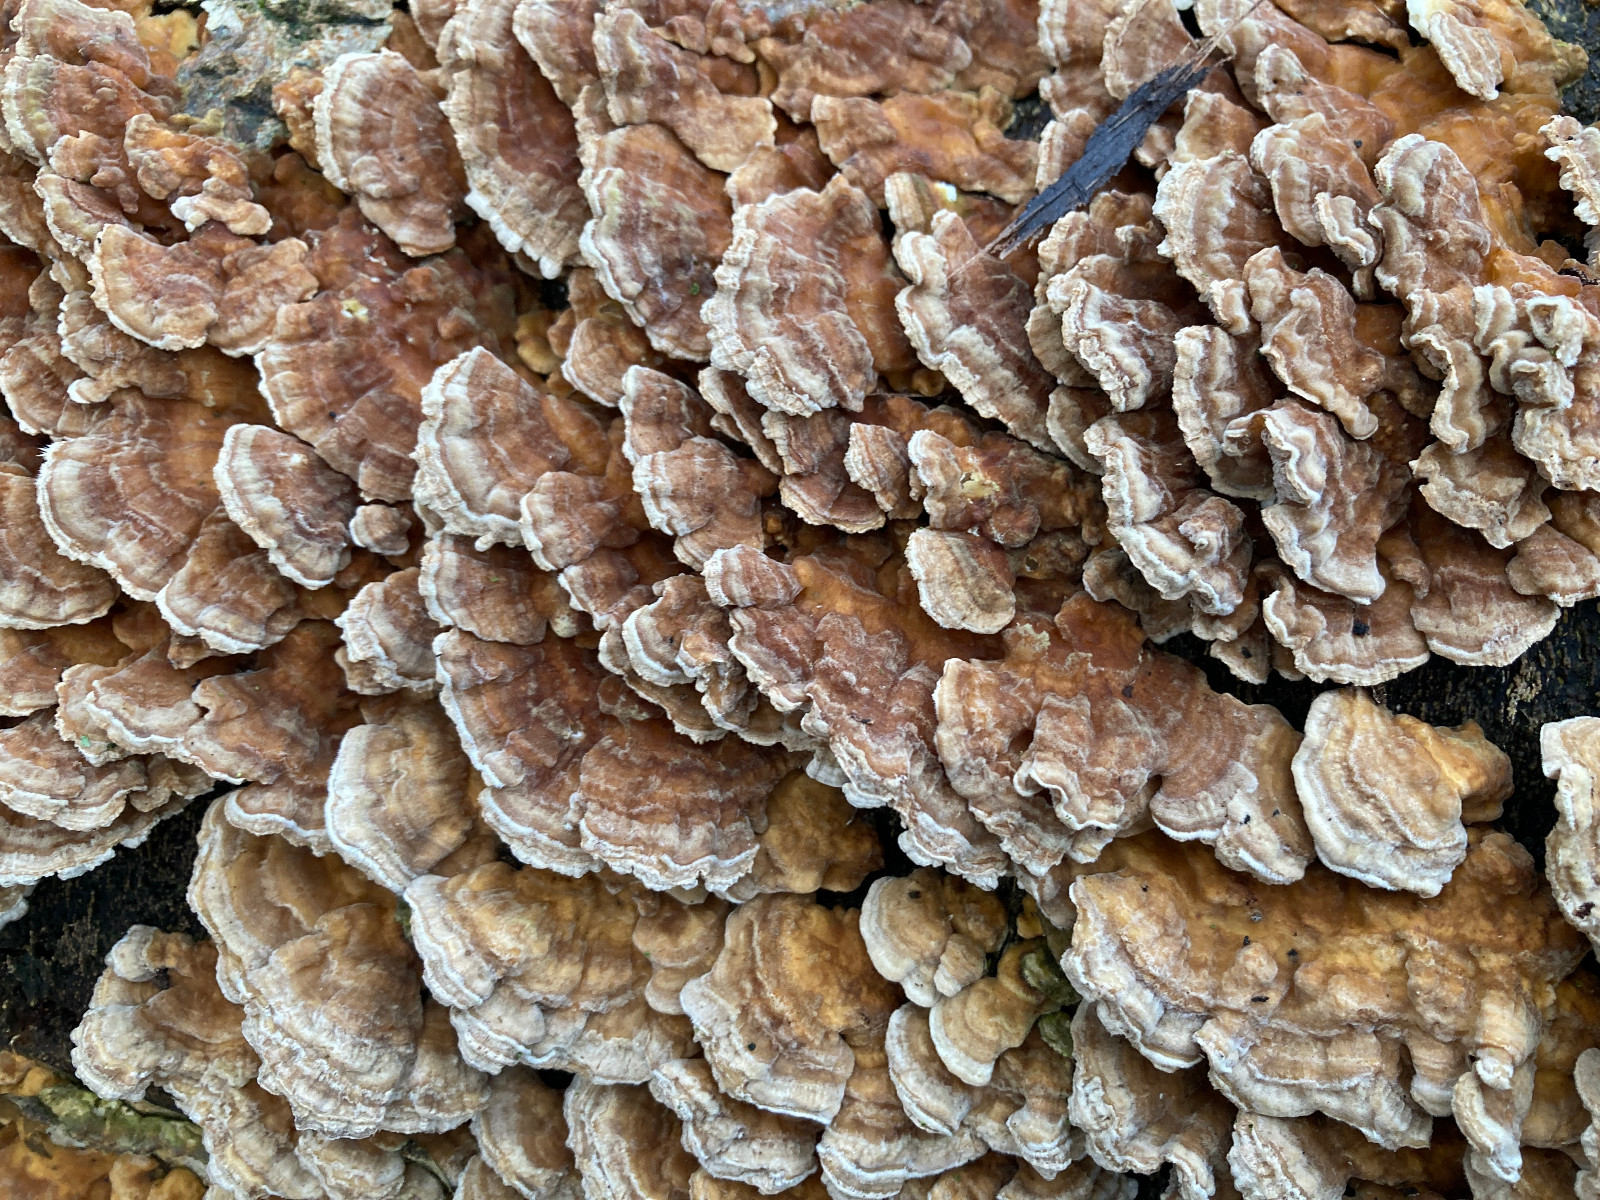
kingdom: Fungi
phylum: Basidiomycota
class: Agaricomycetes
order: Polyporales
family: Polyporaceae
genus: Trametes
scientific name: Trametes ochracea
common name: bæltet læderporesvamp
